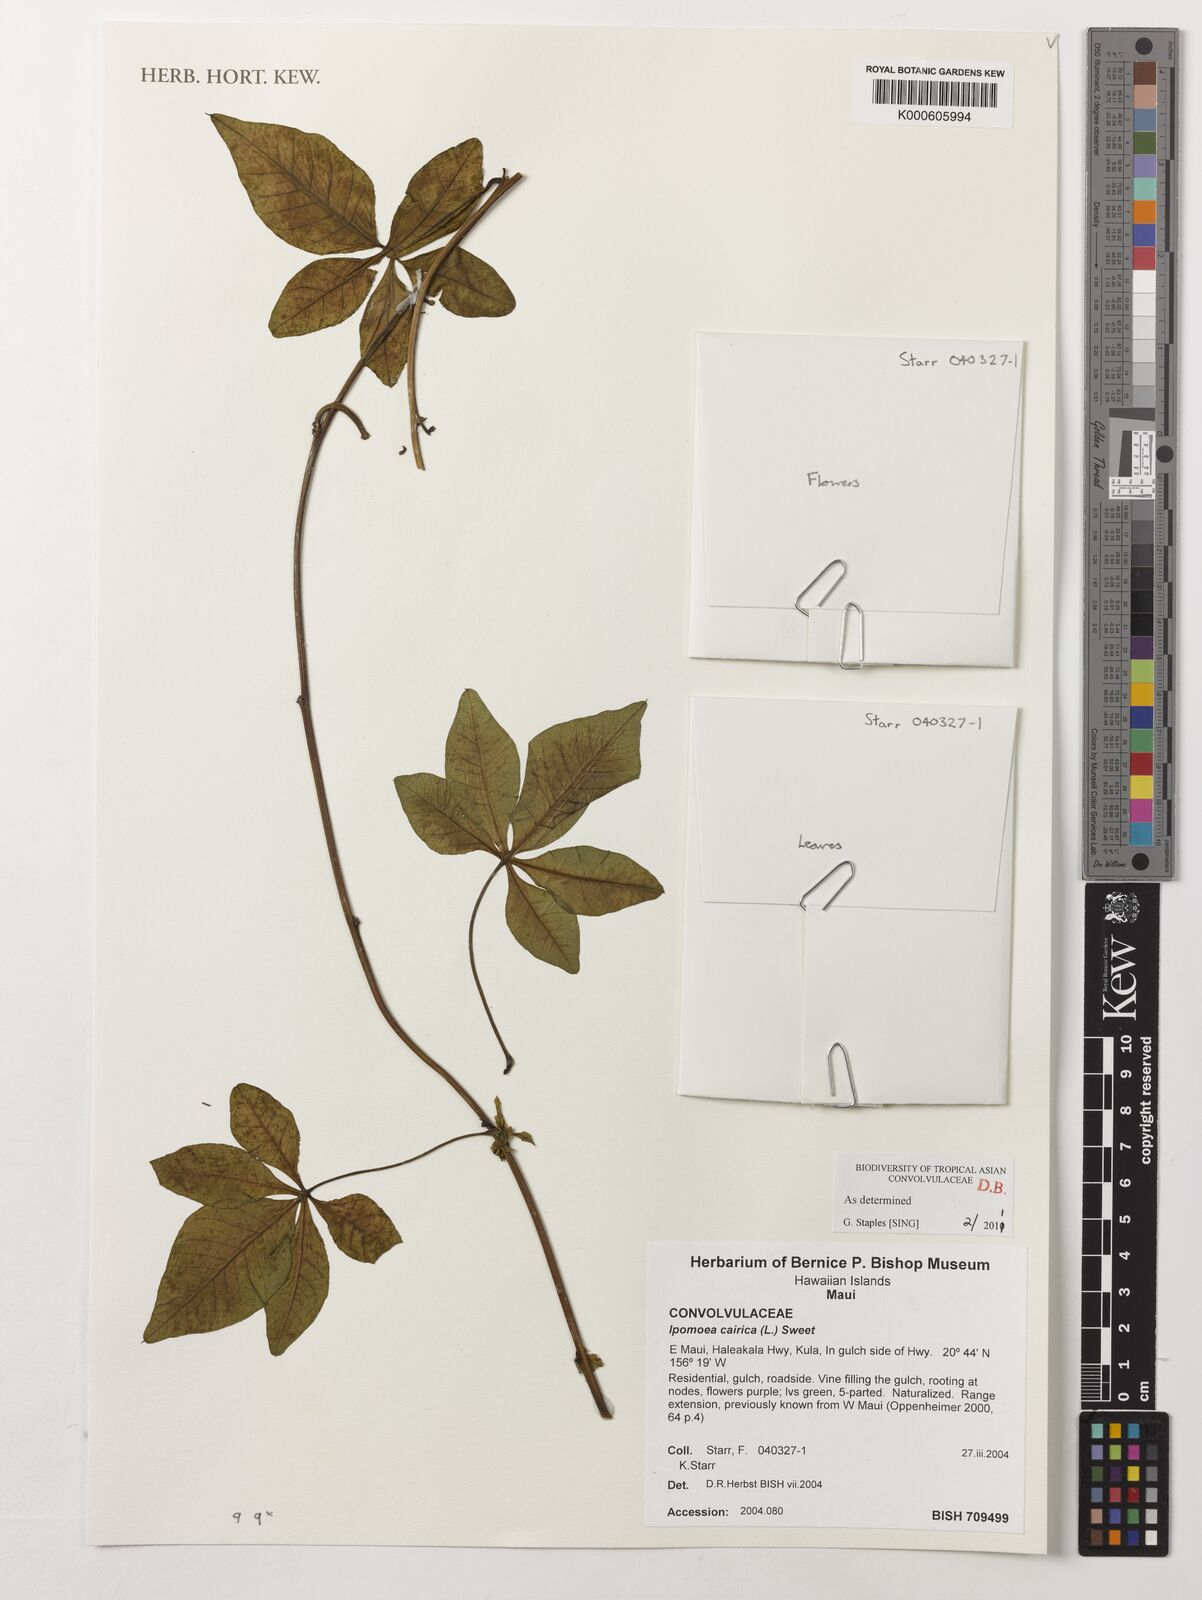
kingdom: Plantae
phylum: Tracheophyta
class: Magnoliopsida
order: Solanales
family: Convolvulaceae
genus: Ipomoea
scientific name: Ipomoea cairica
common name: Mile a minute vine
